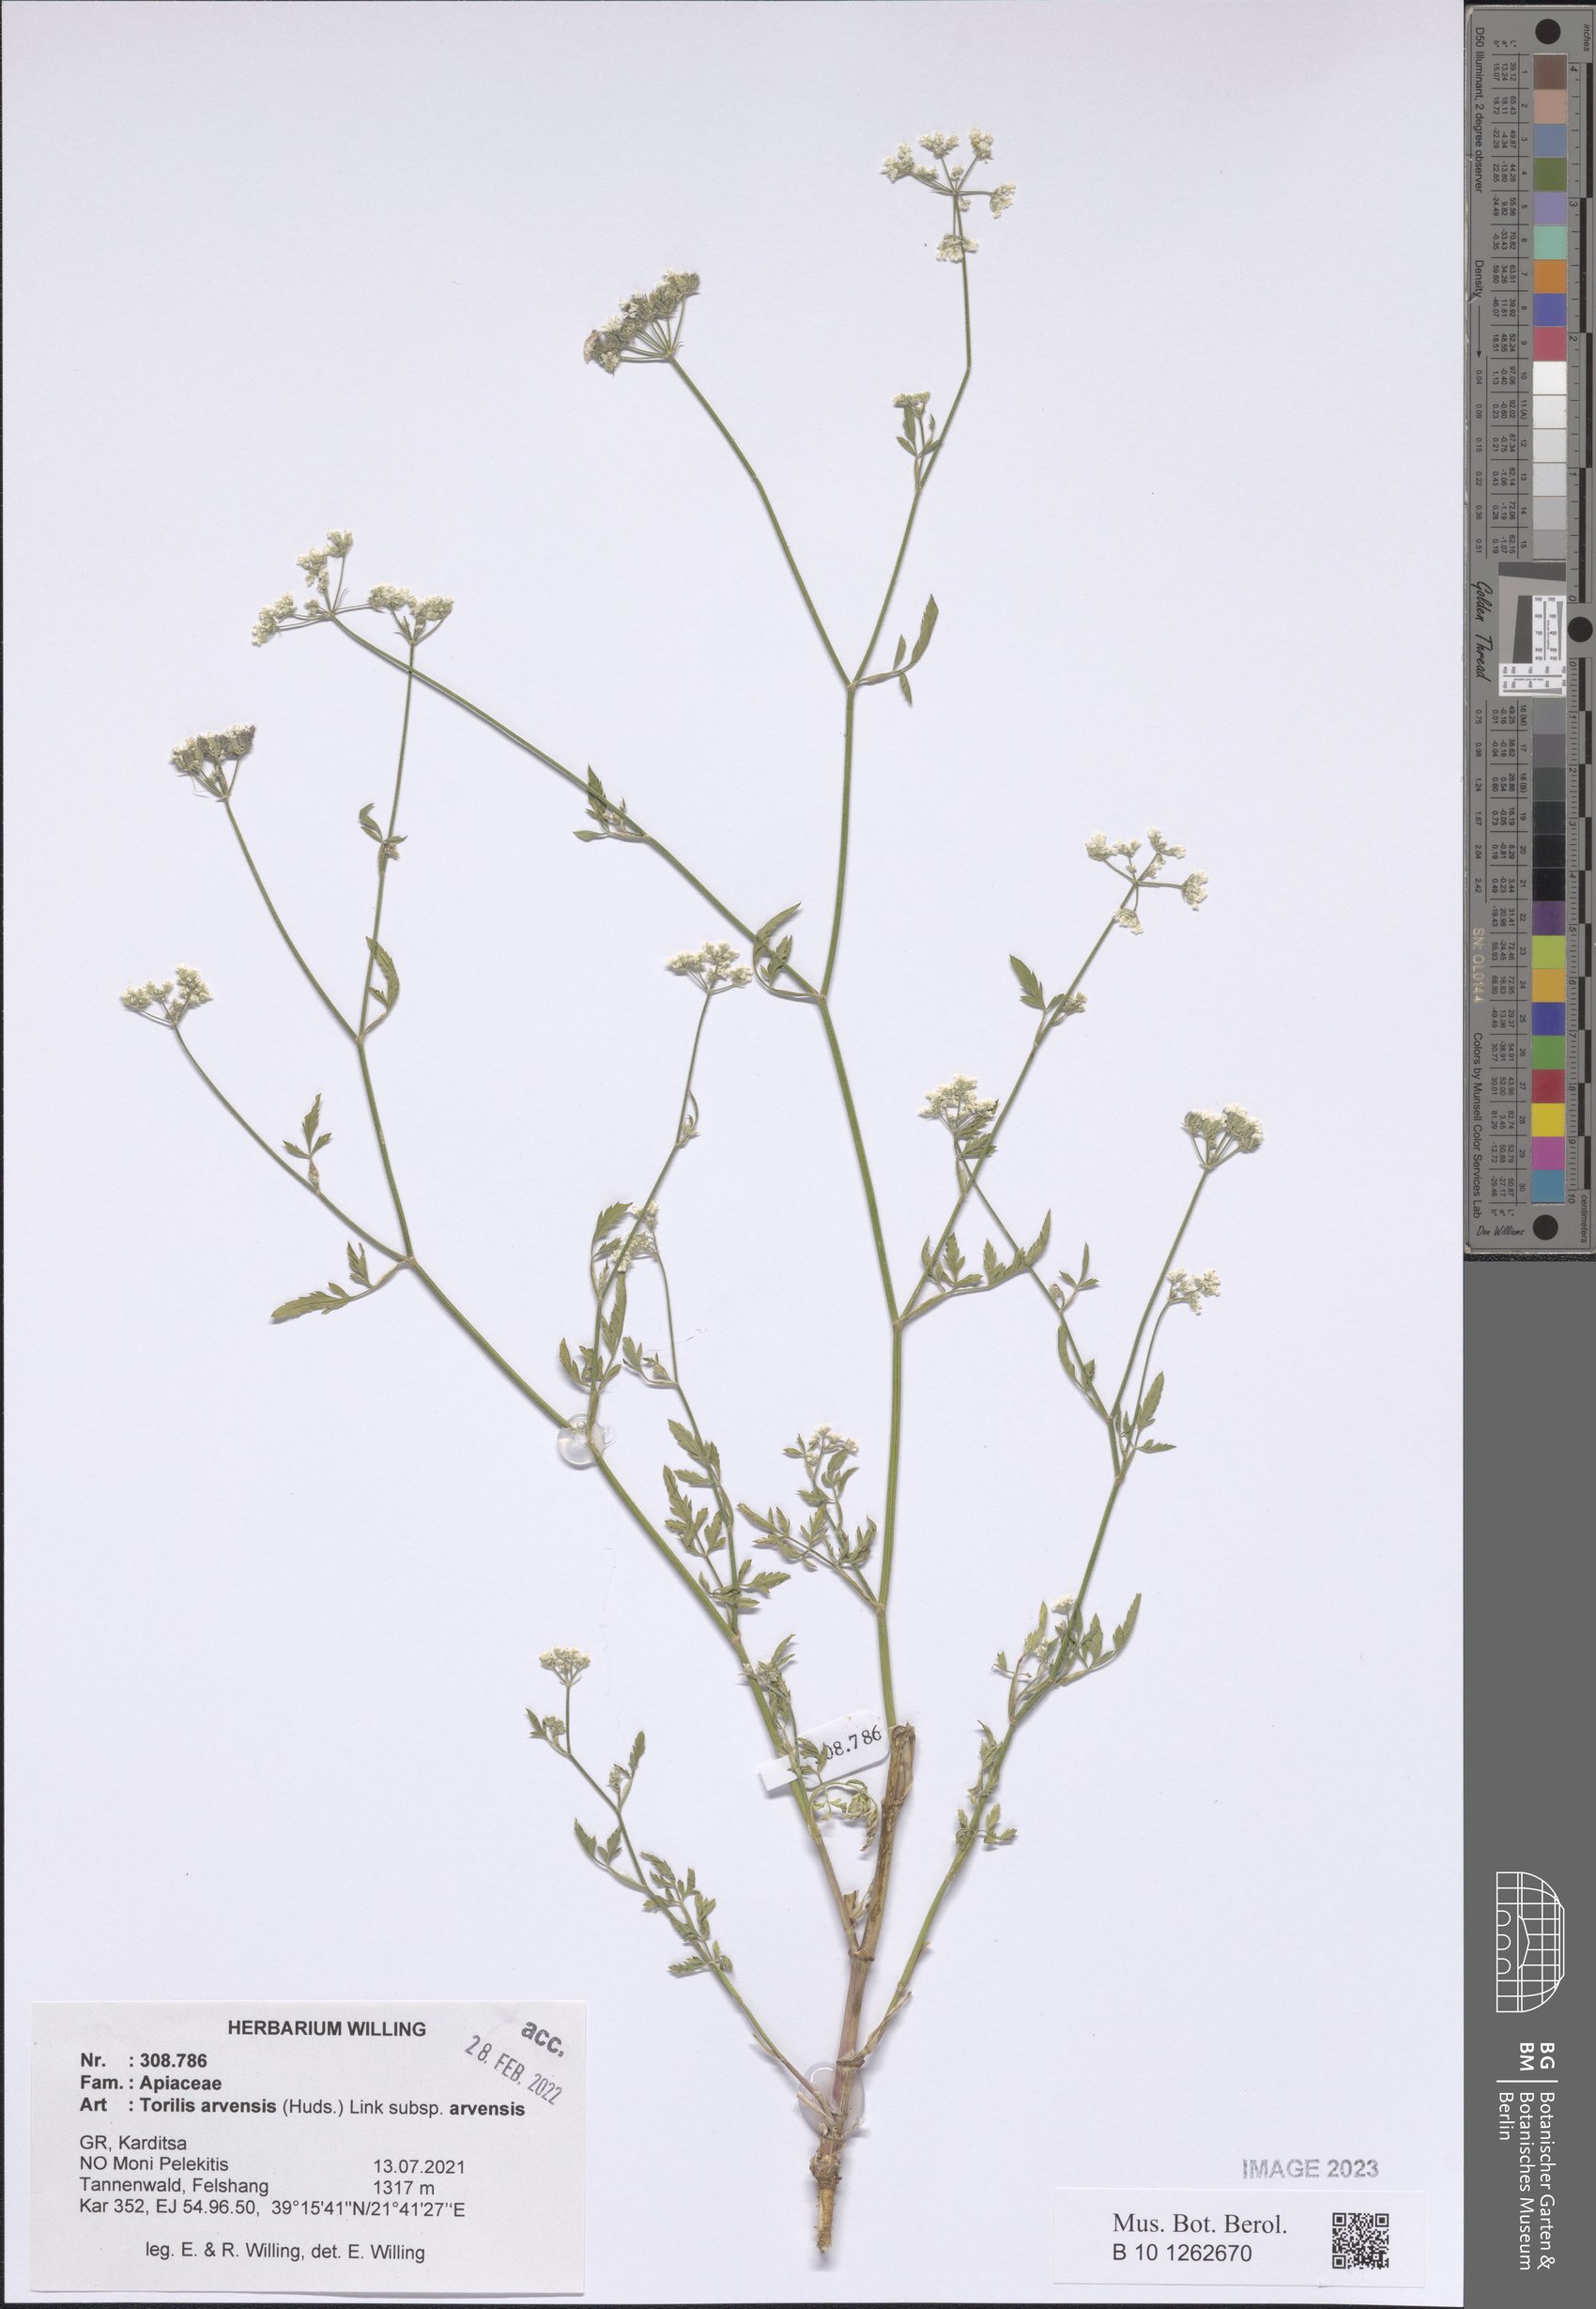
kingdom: Plantae
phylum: Tracheophyta
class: Magnoliopsida
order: Apiales
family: Apiaceae
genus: Torilis
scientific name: Torilis arvensis
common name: Spreading hedge-parsley
